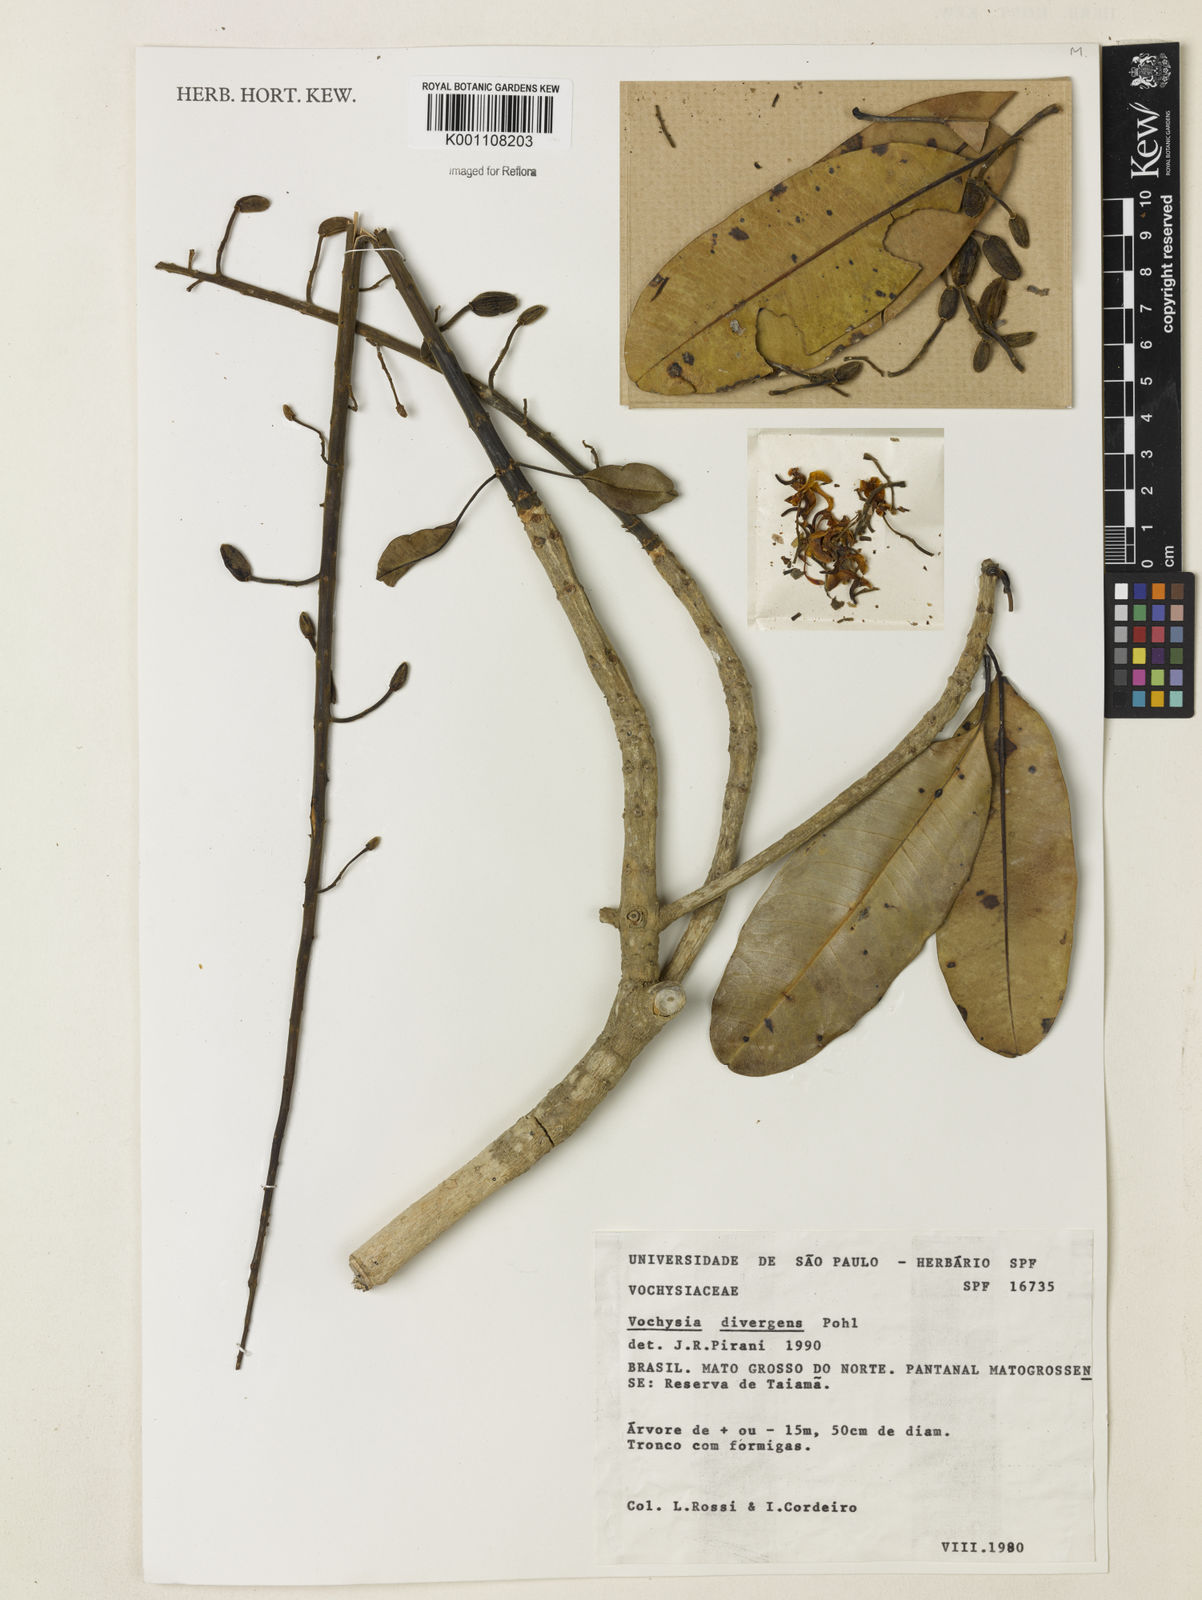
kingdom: Plantae
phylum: Tracheophyta
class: Magnoliopsida
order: Myrtales
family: Vochysiaceae
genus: Vochysia
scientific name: Vochysia divergens
